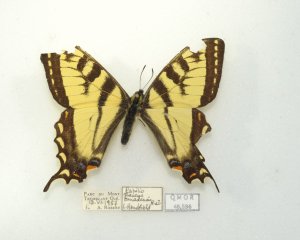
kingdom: Animalia
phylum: Arthropoda
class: Insecta
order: Lepidoptera
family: Papilionidae
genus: Pterourus
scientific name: Pterourus canadensis
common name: Canadian Tiger Swallowtail
